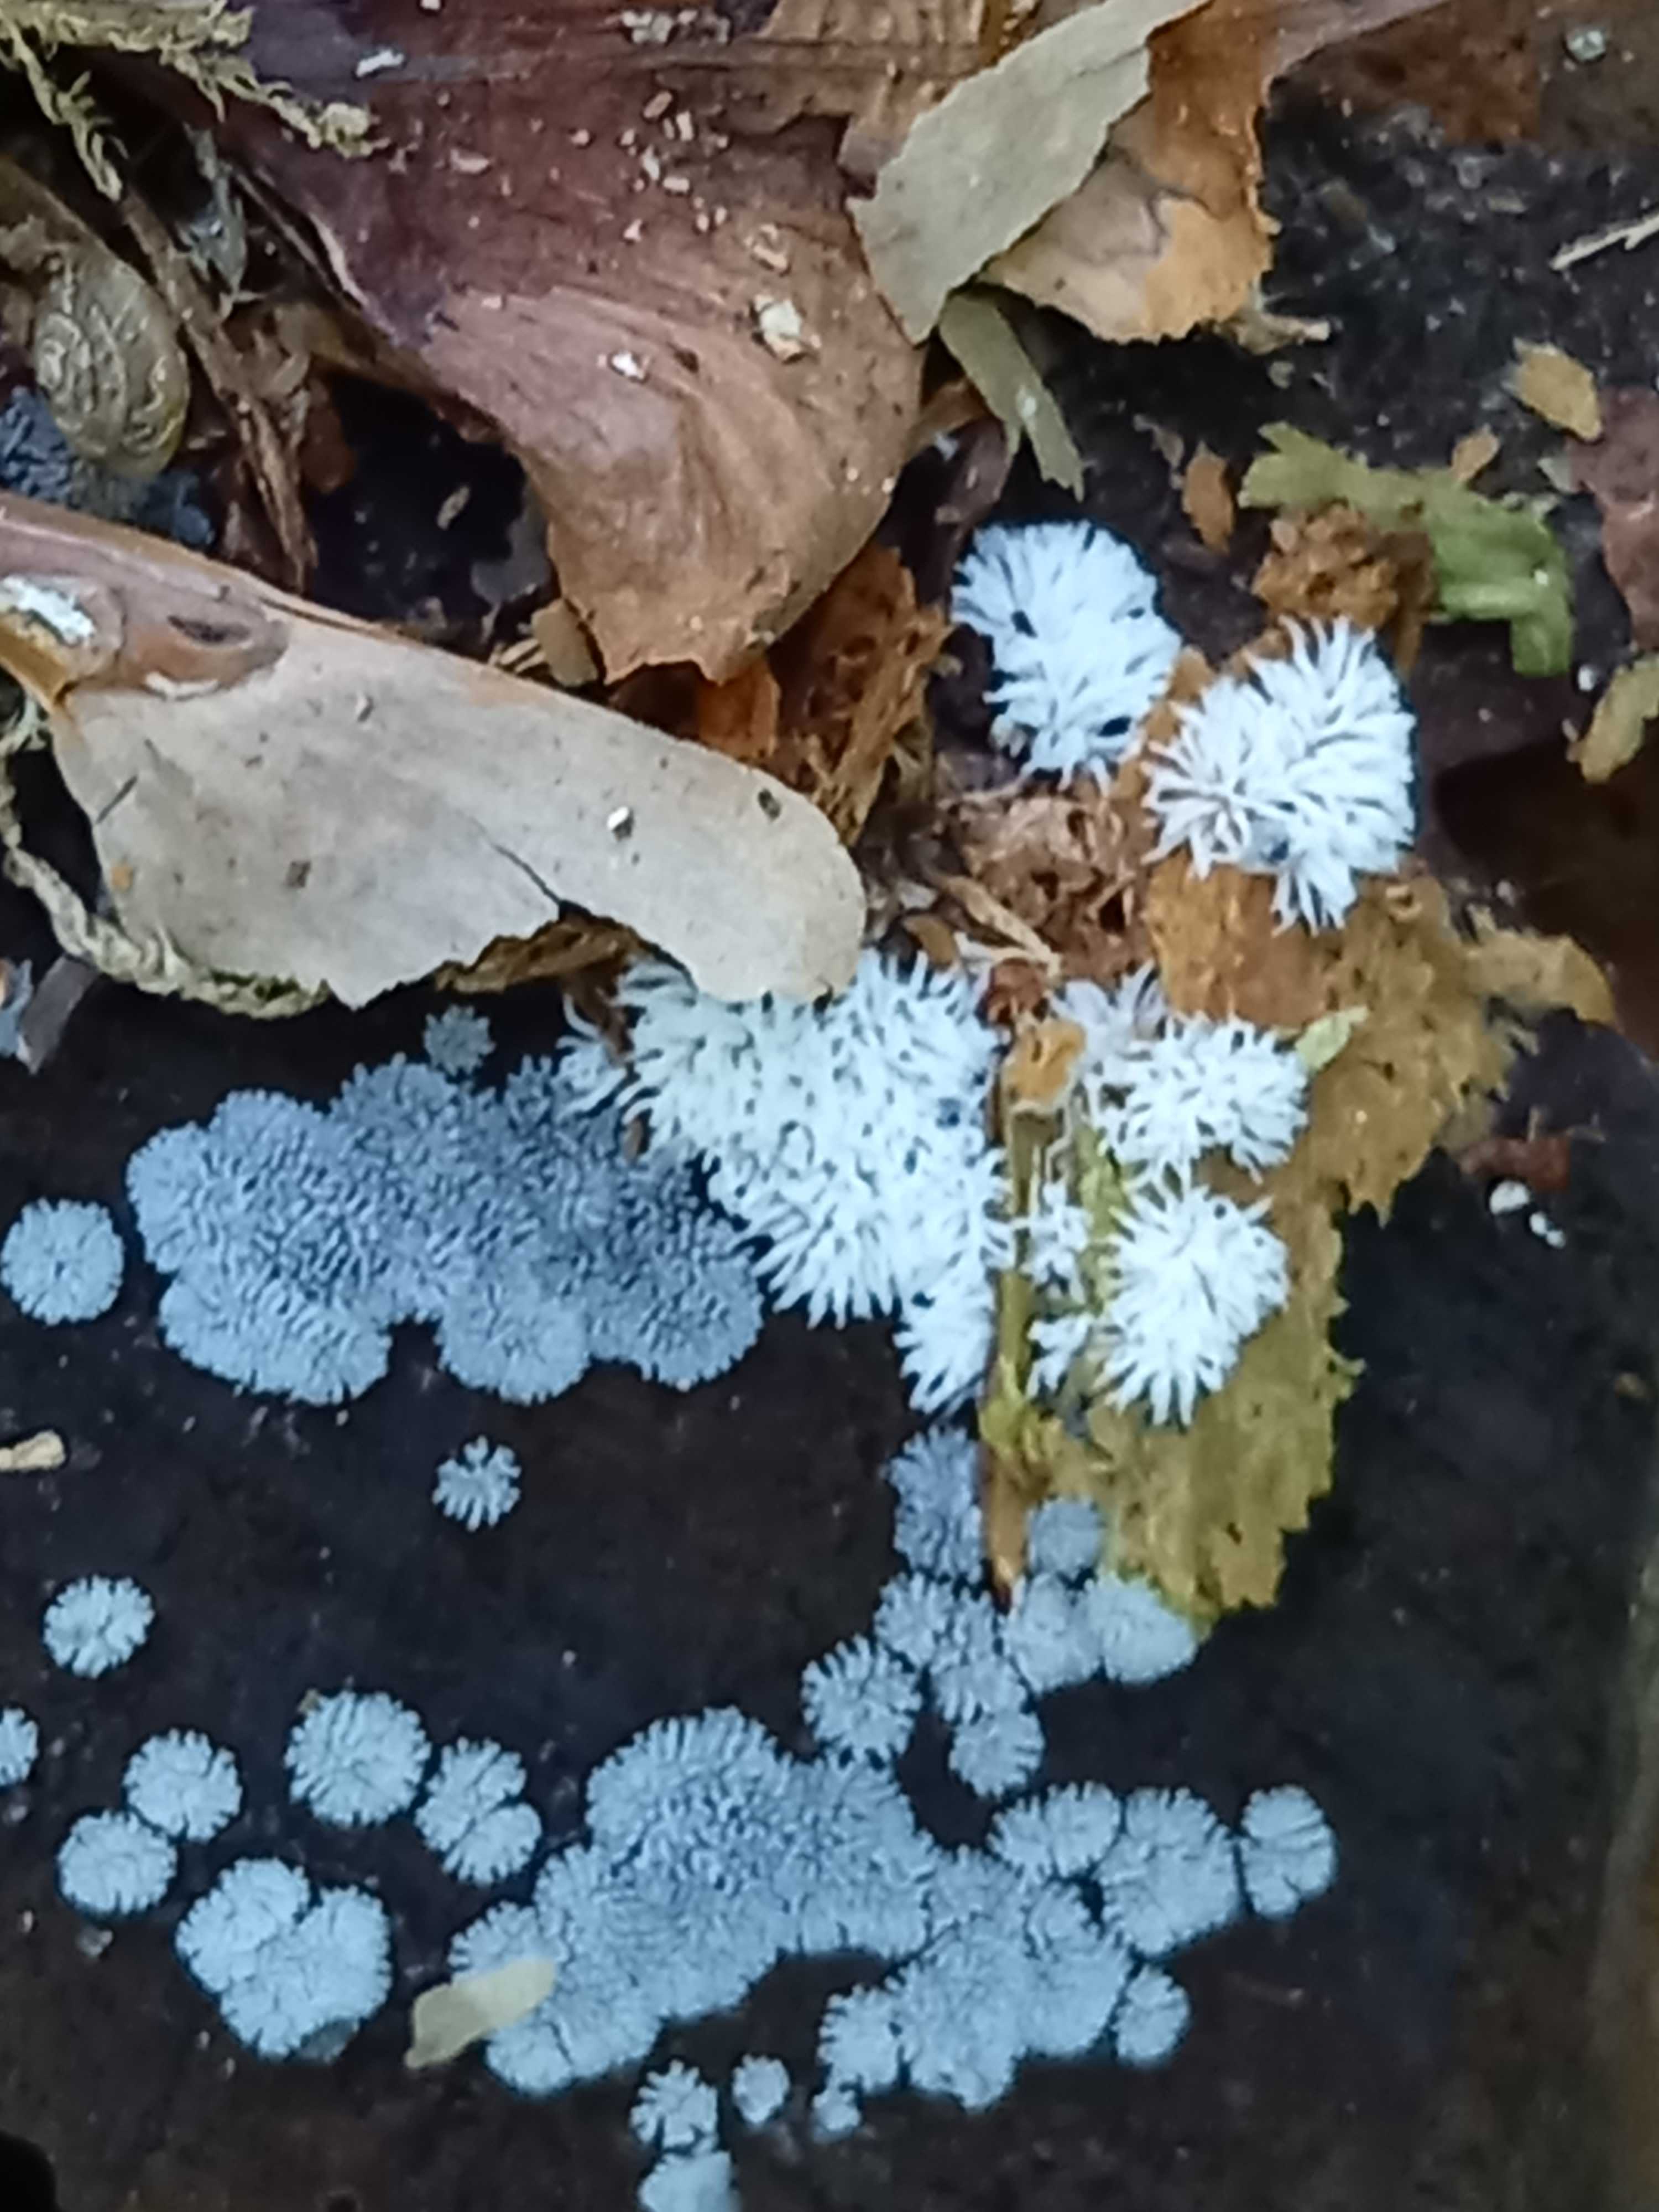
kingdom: Protozoa
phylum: Mycetozoa
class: Protosteliomycetes
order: Ceratiomyxales
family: Ceratiomyxaceae
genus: Ceratiomyxa
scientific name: Ceratiomyxa fruticulosa
